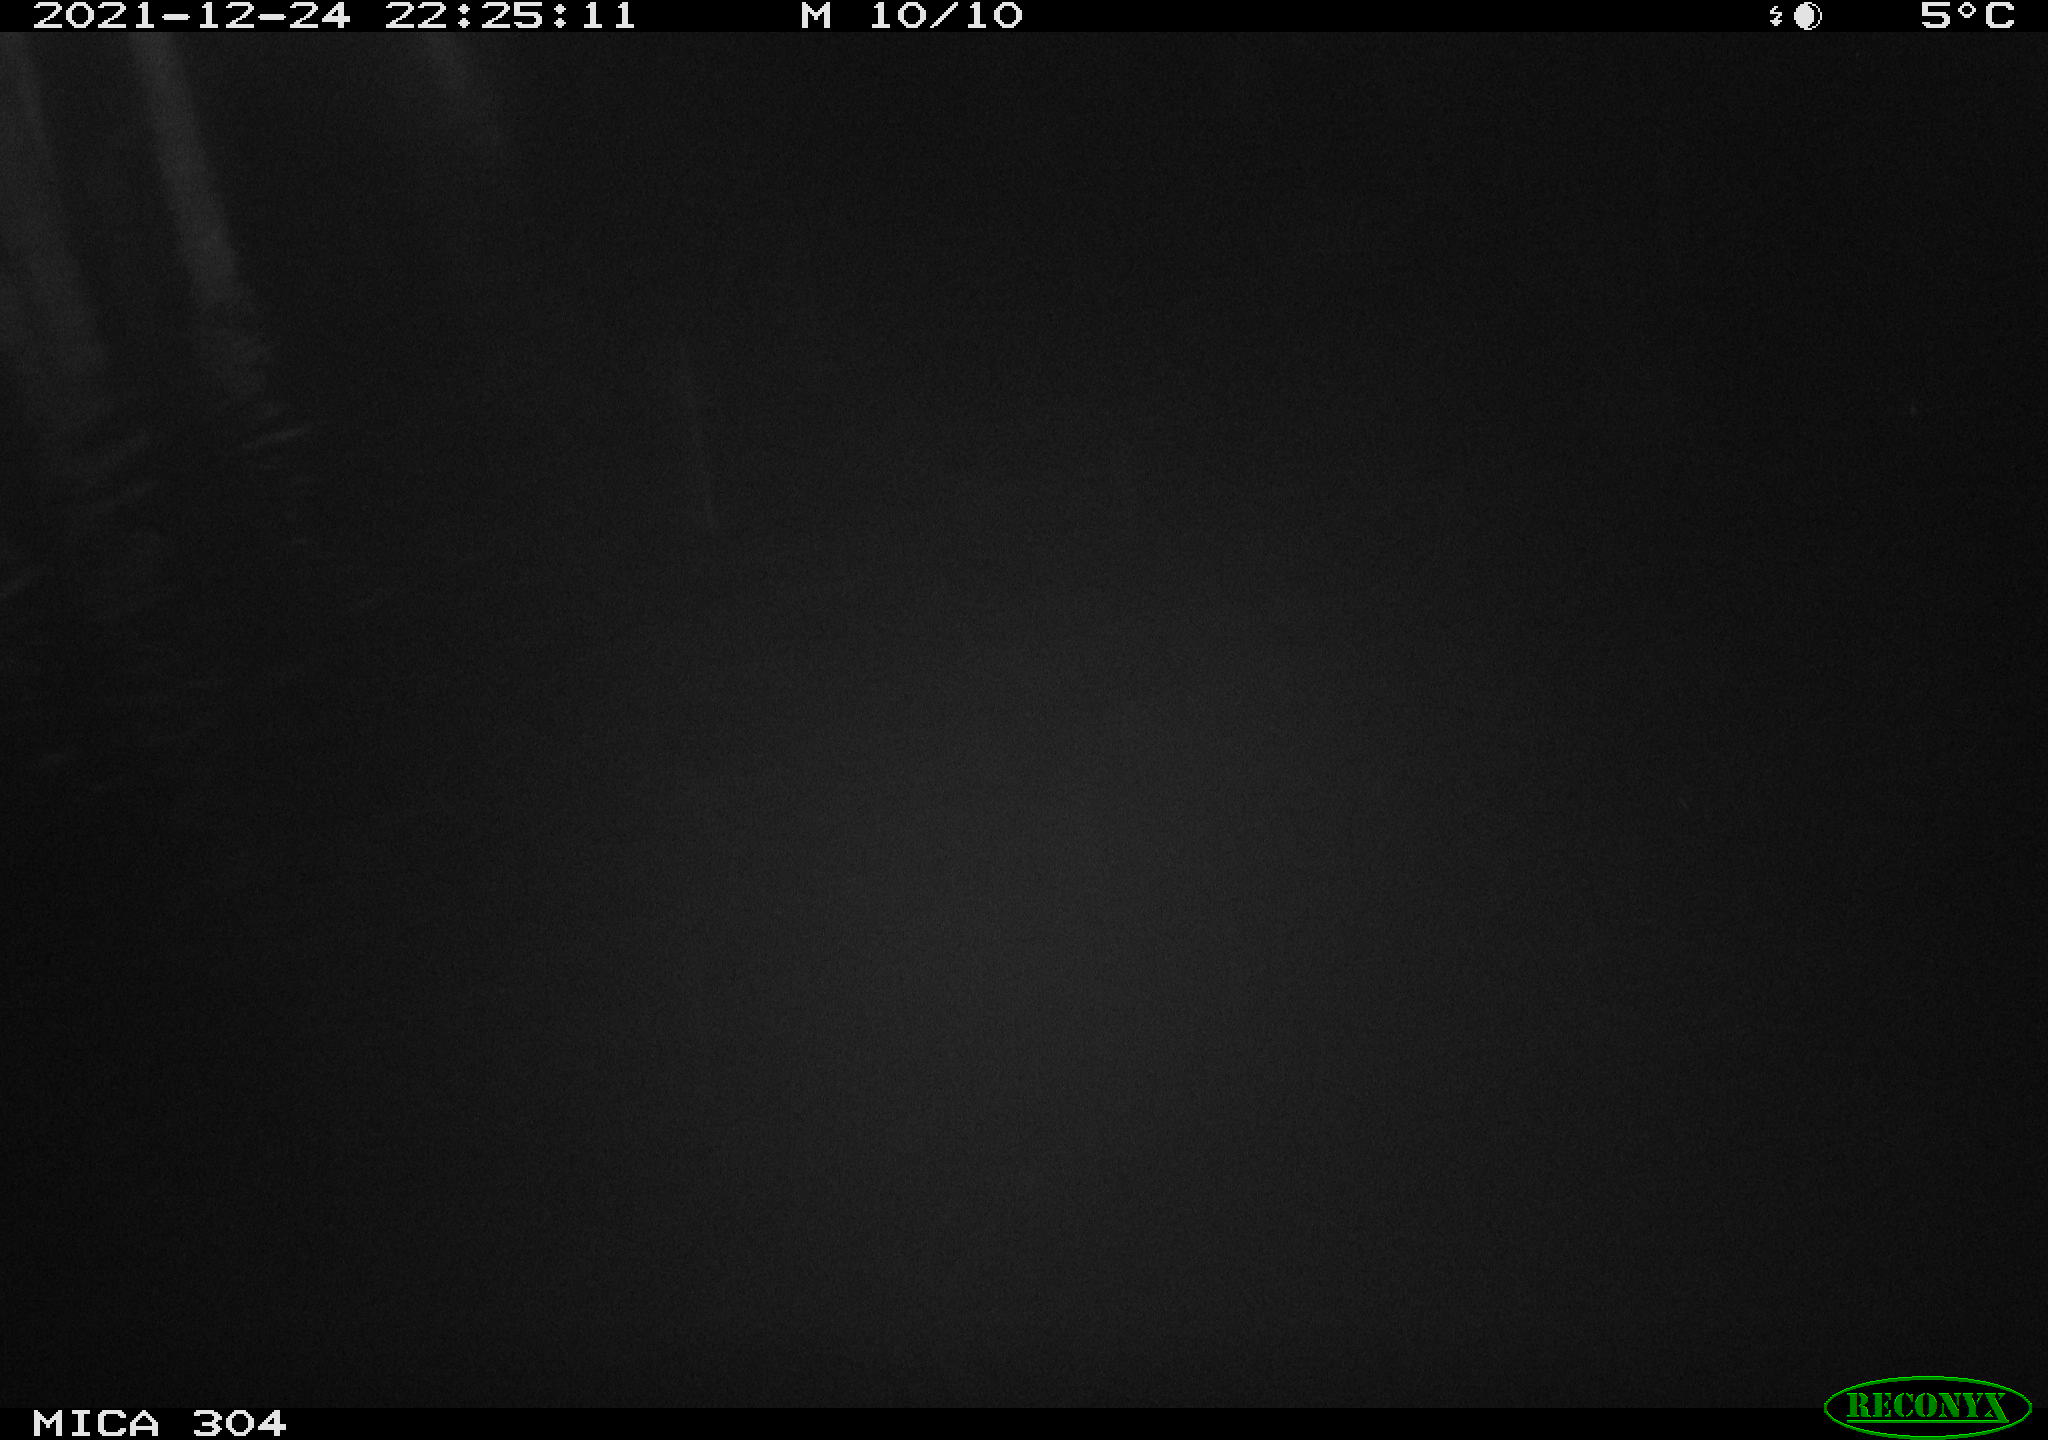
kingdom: Animalia
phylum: Chordata
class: Aves
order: Gruiformes
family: Rallidae
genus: Gallinula
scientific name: Gallinula chloropus
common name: Common moorhen
